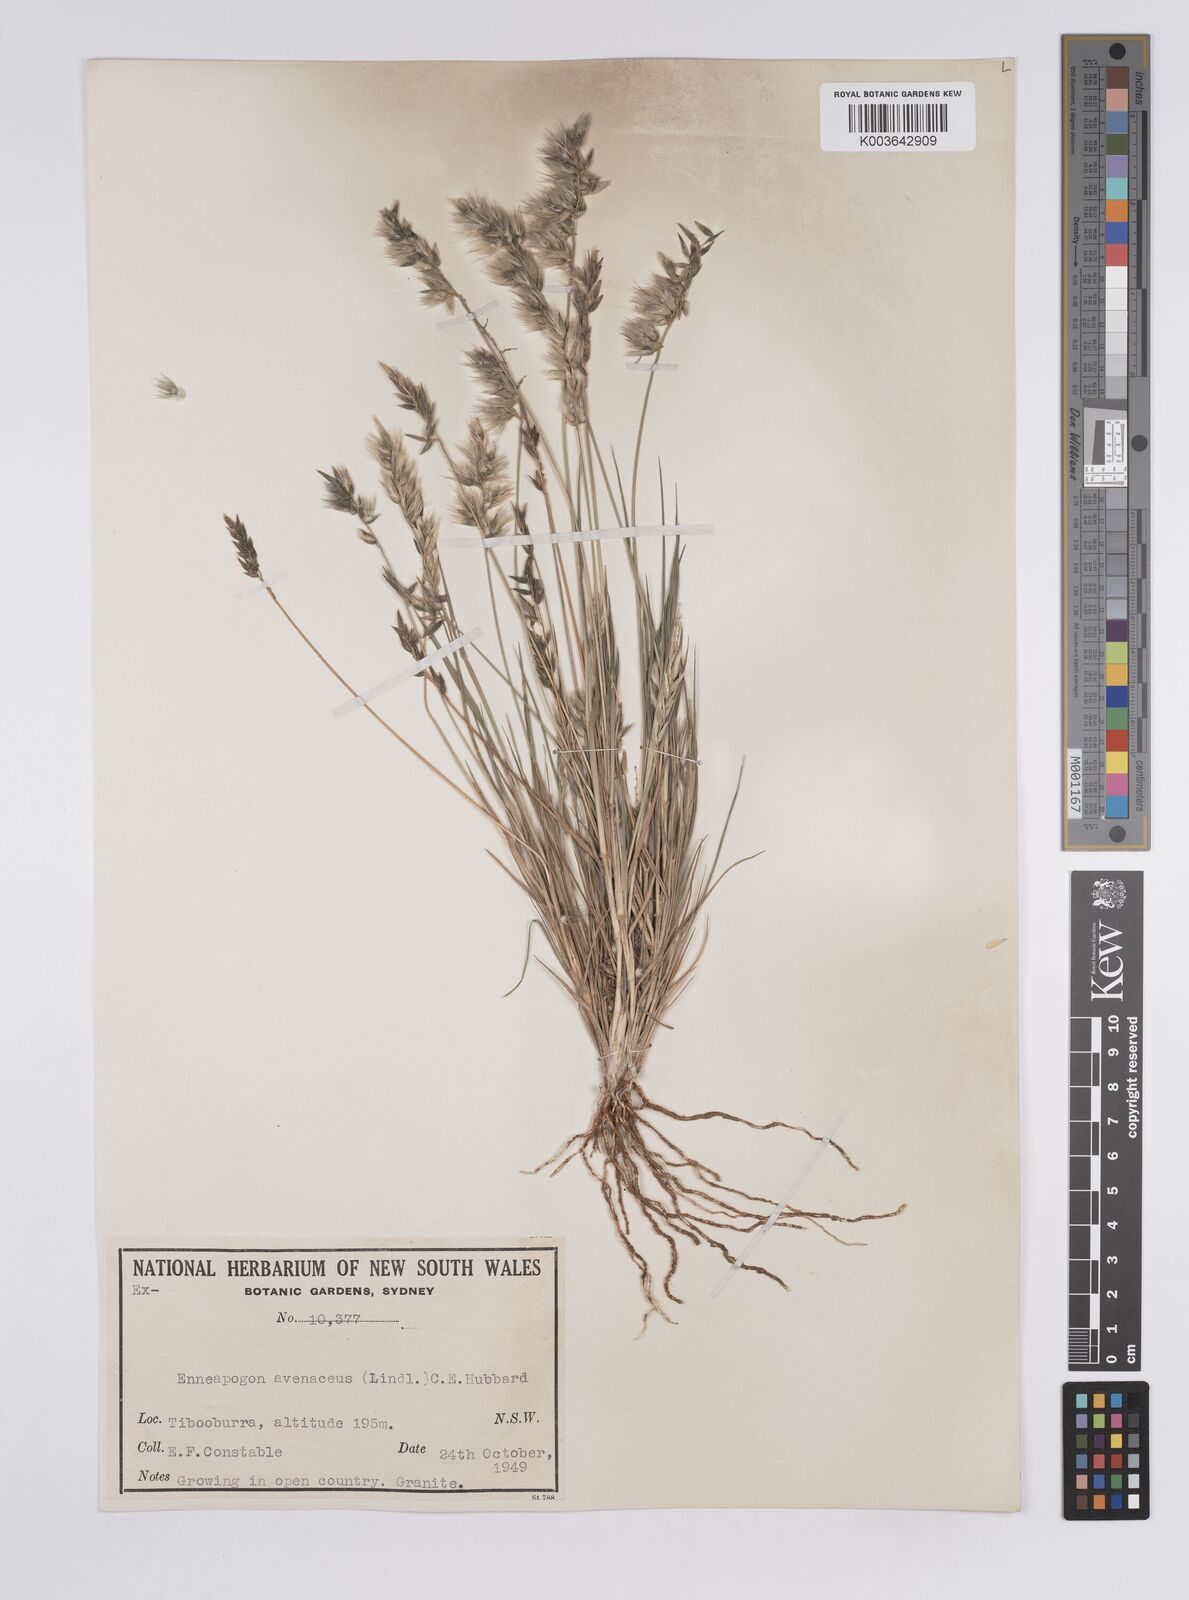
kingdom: Plantae
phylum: Tracheophyta
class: Liliopsida
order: Poales
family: Poaceae
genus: Enneapogon
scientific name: Enneapogon avenaceus
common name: Hairy oat grass
